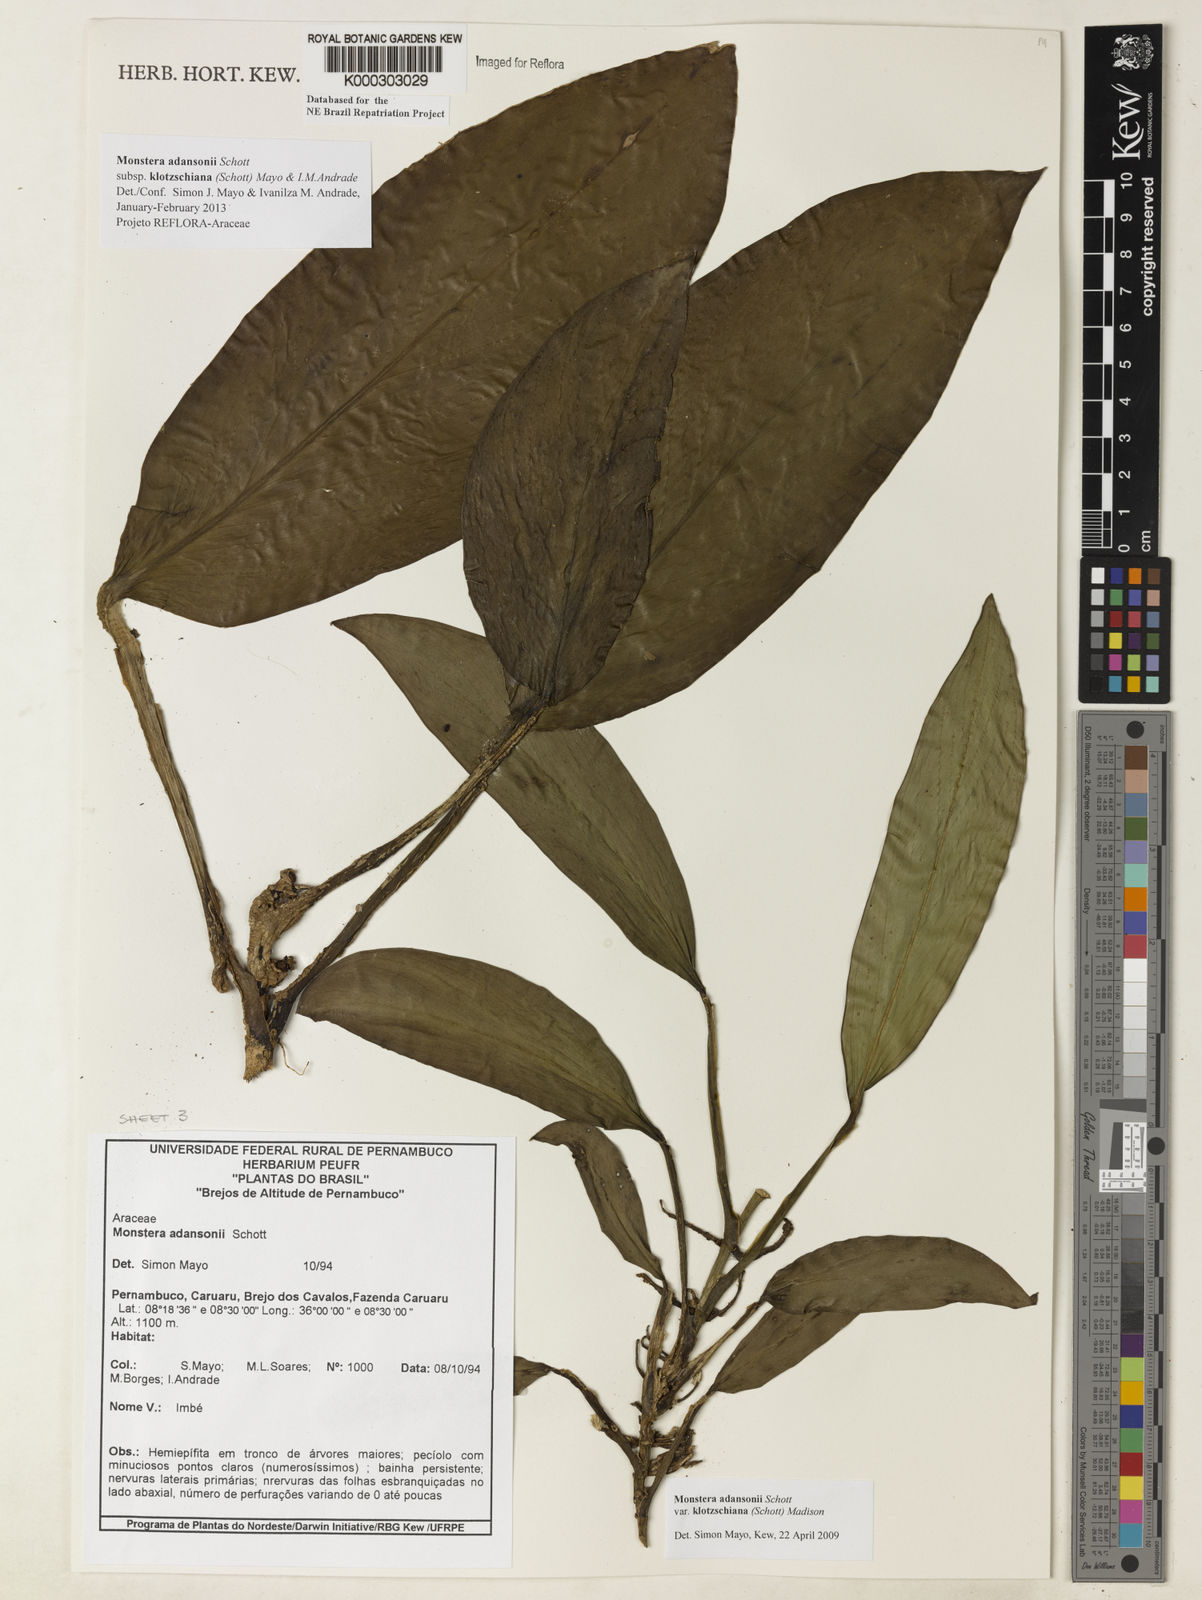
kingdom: Plantae
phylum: Tracheophyta
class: Liliopsida
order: Alismatales
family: Araceae
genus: Monstera
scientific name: Monstera adansonii
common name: Tarovine
